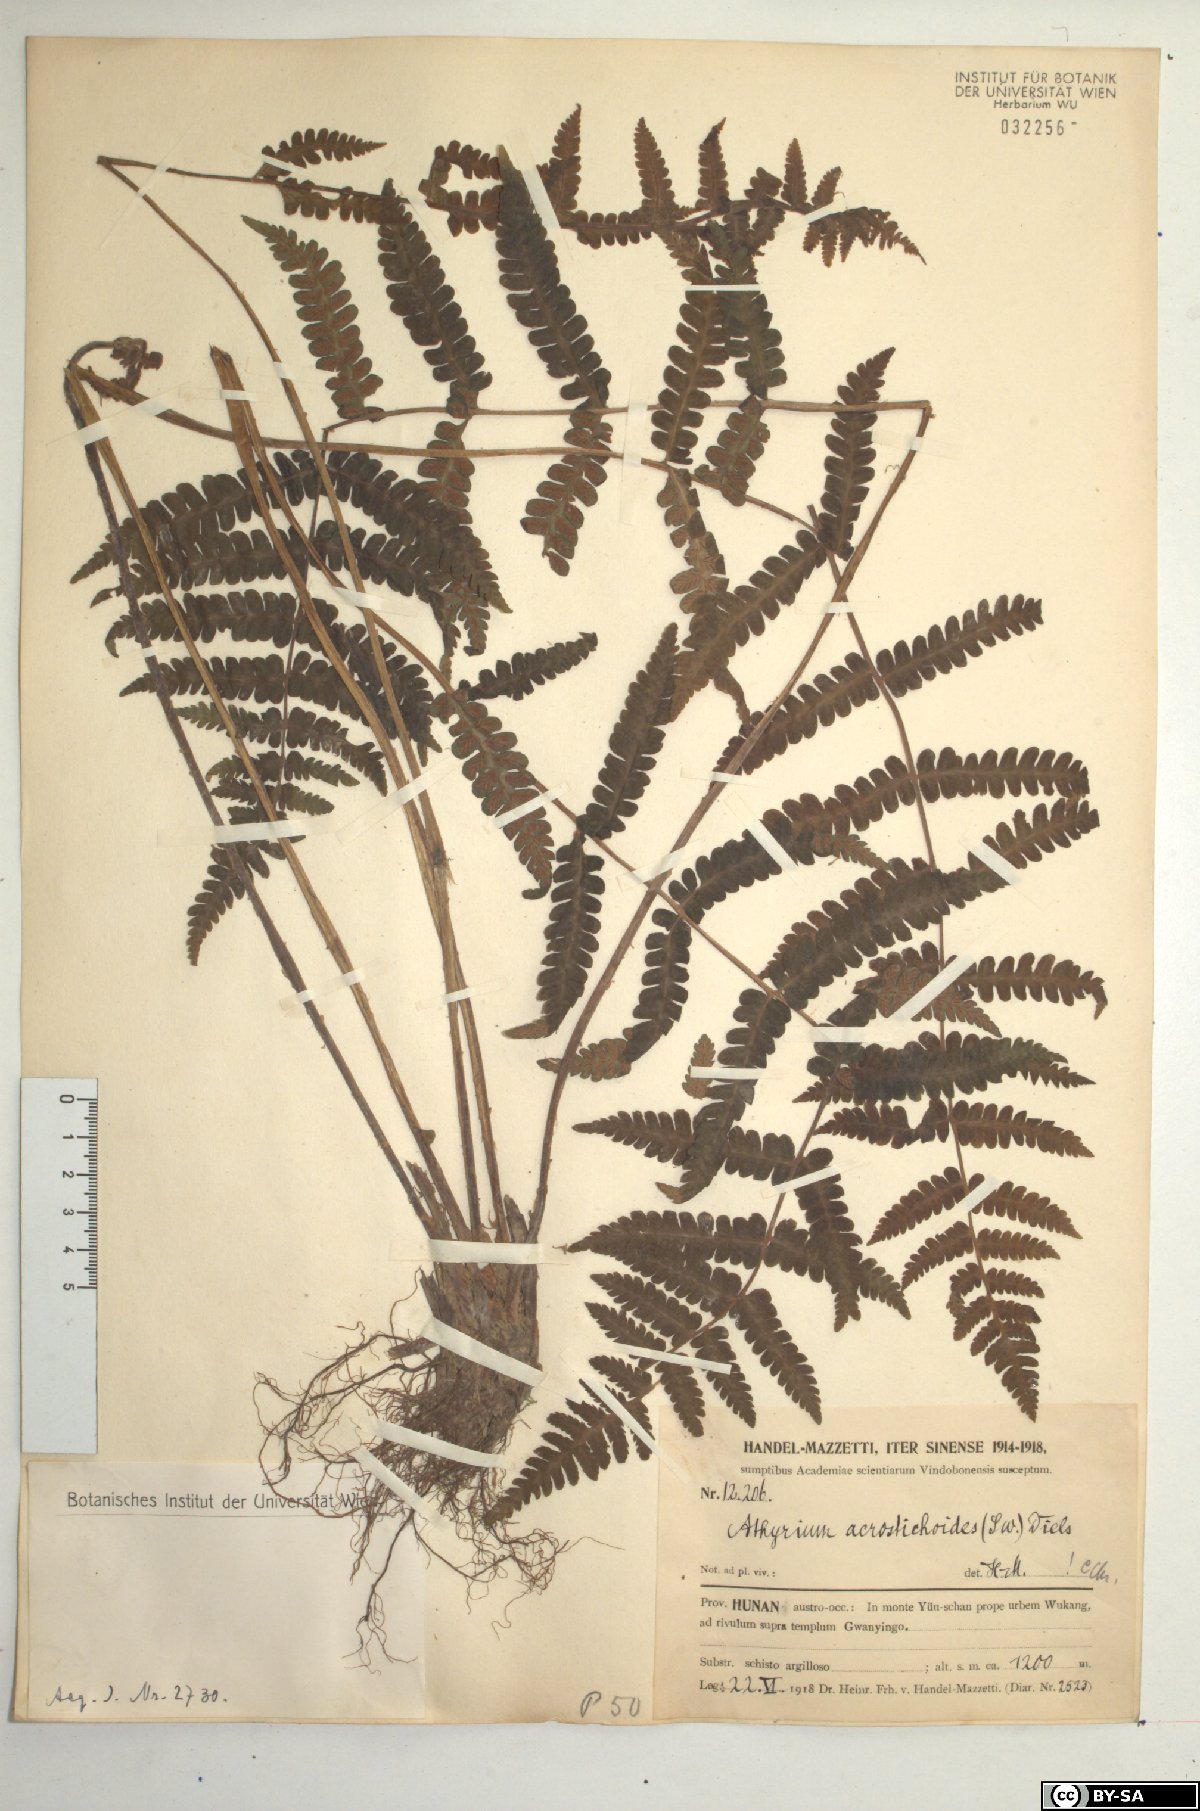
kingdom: Plantae
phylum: Tracheophyta
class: Polypodiopsida
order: Polypodiales
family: Athyriaceae
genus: Deparia
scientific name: Deparia acrostichoides
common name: Silver false spleenwort
